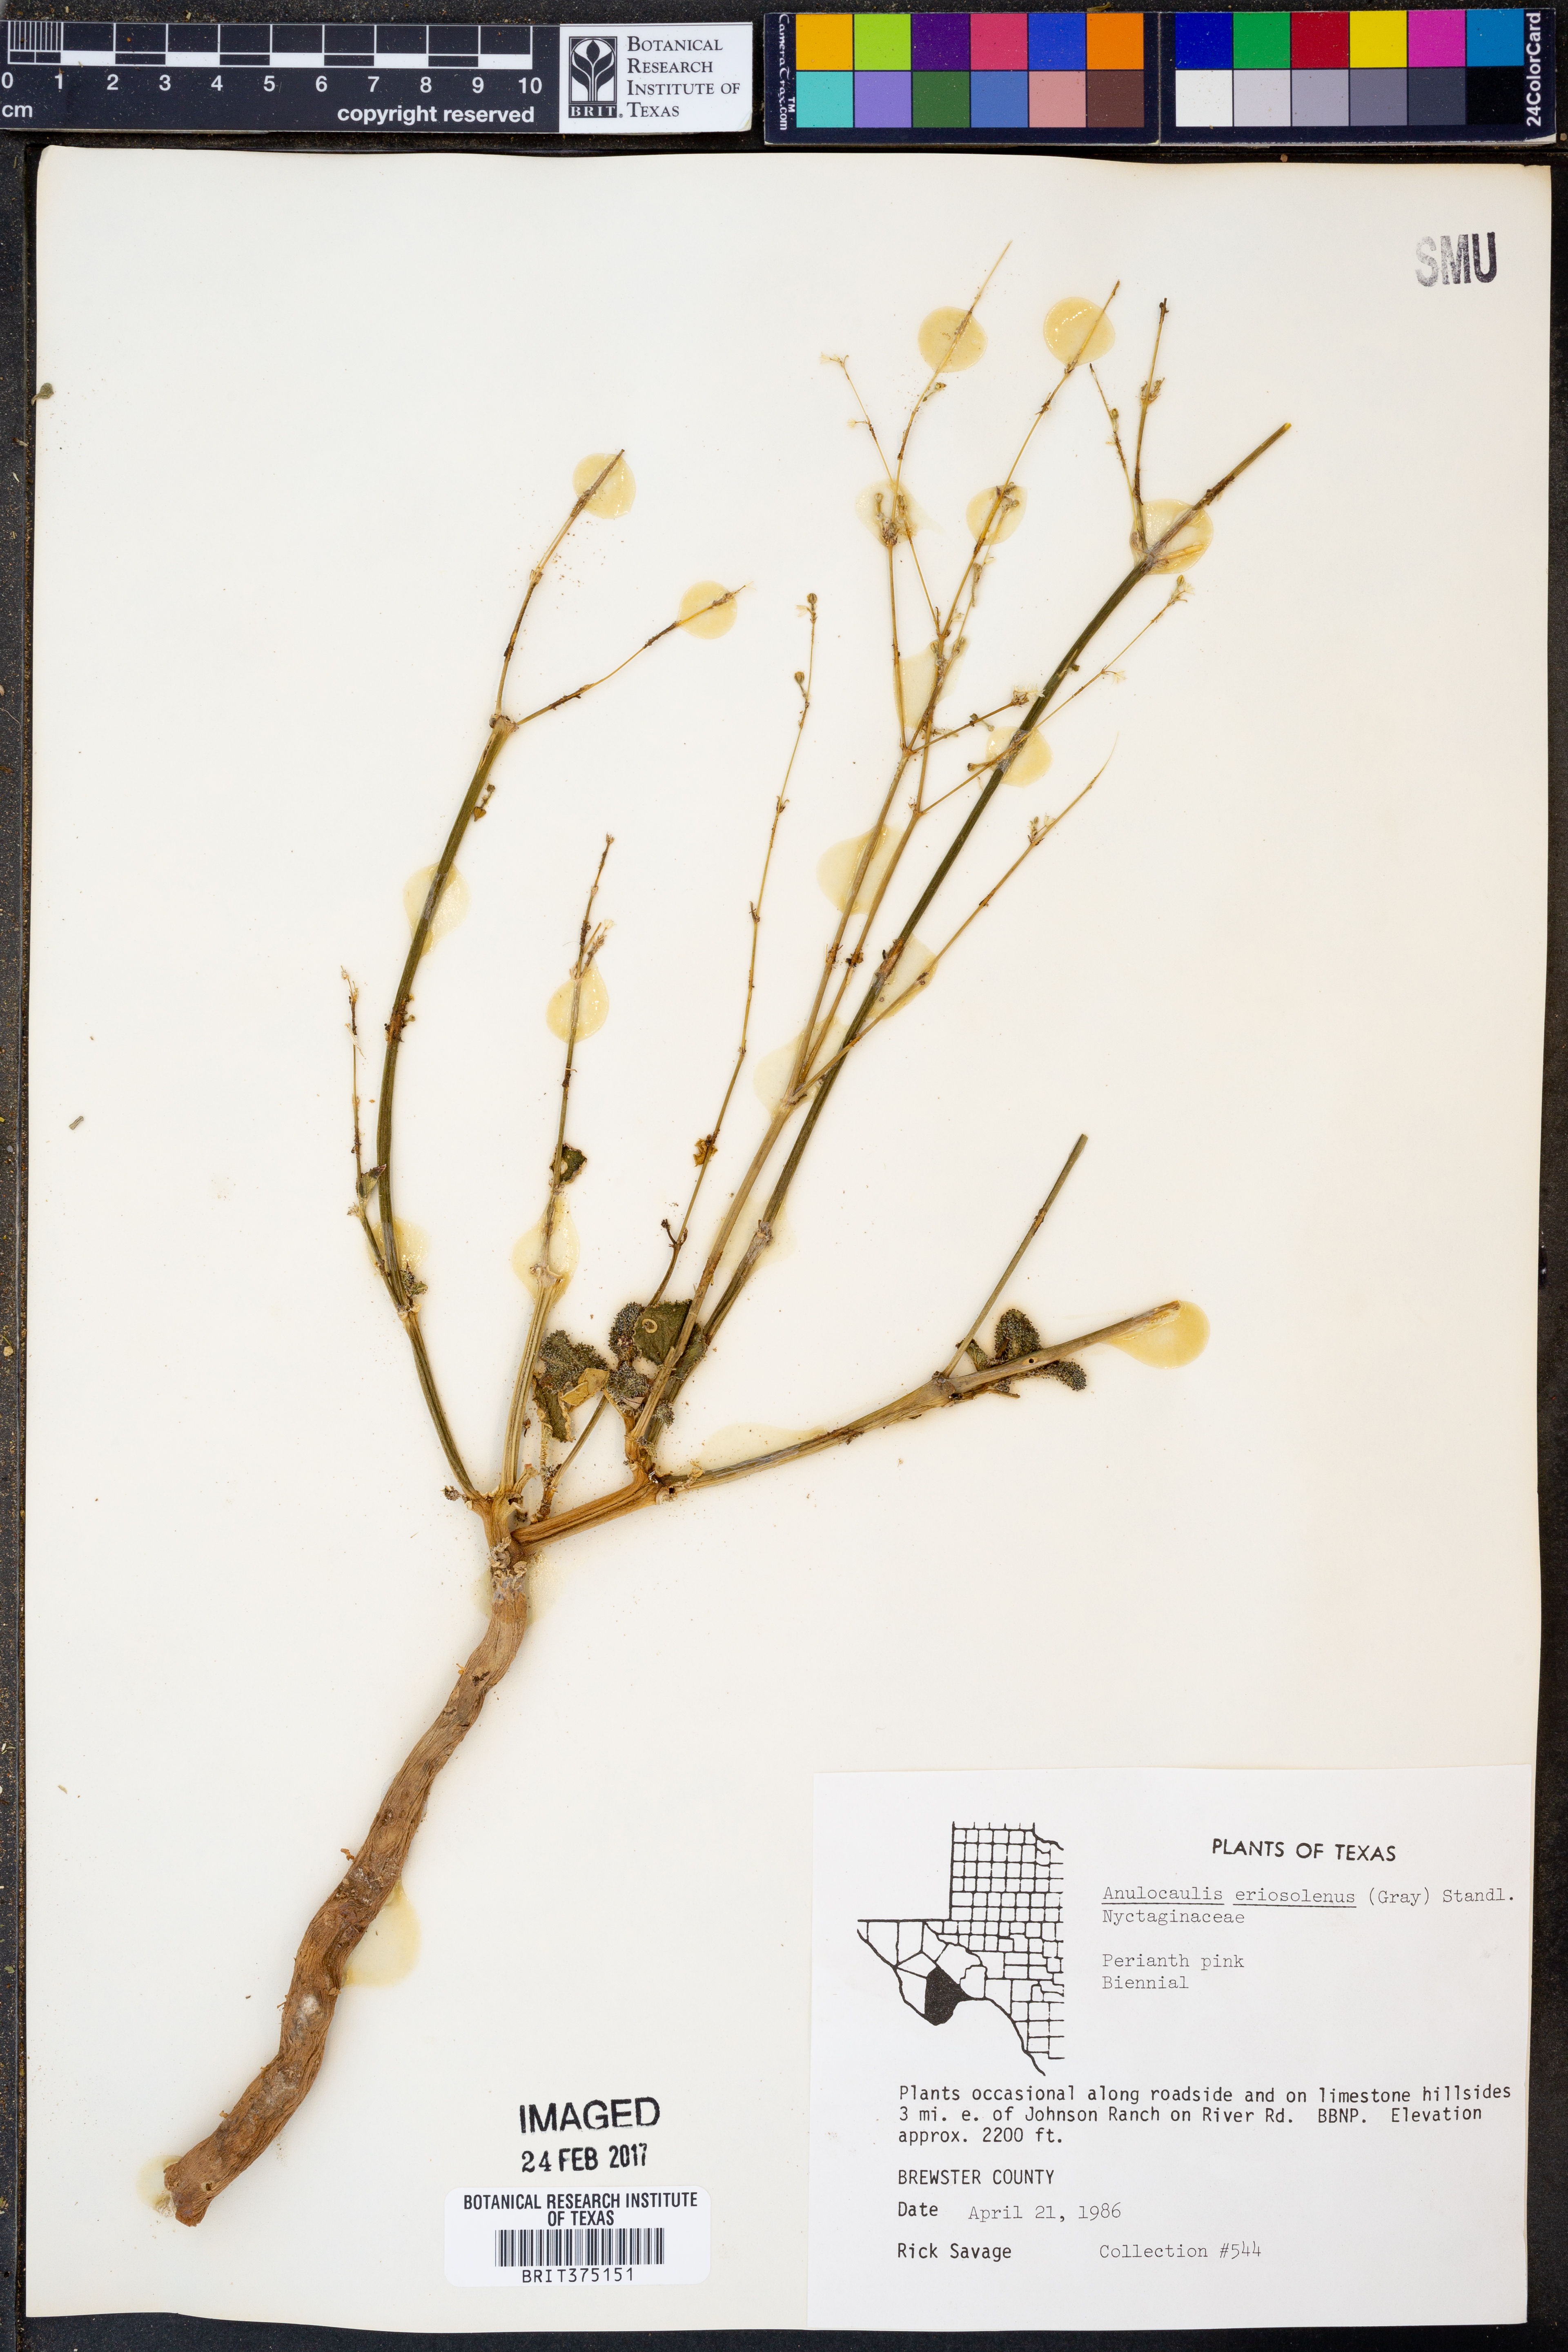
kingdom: Plantae
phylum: Tracheophyta
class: Magnoliopsida
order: Caryophyllales
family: Nyctaginaceae
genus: Anulocaulis
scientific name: Anulocaulis eriosolenus
